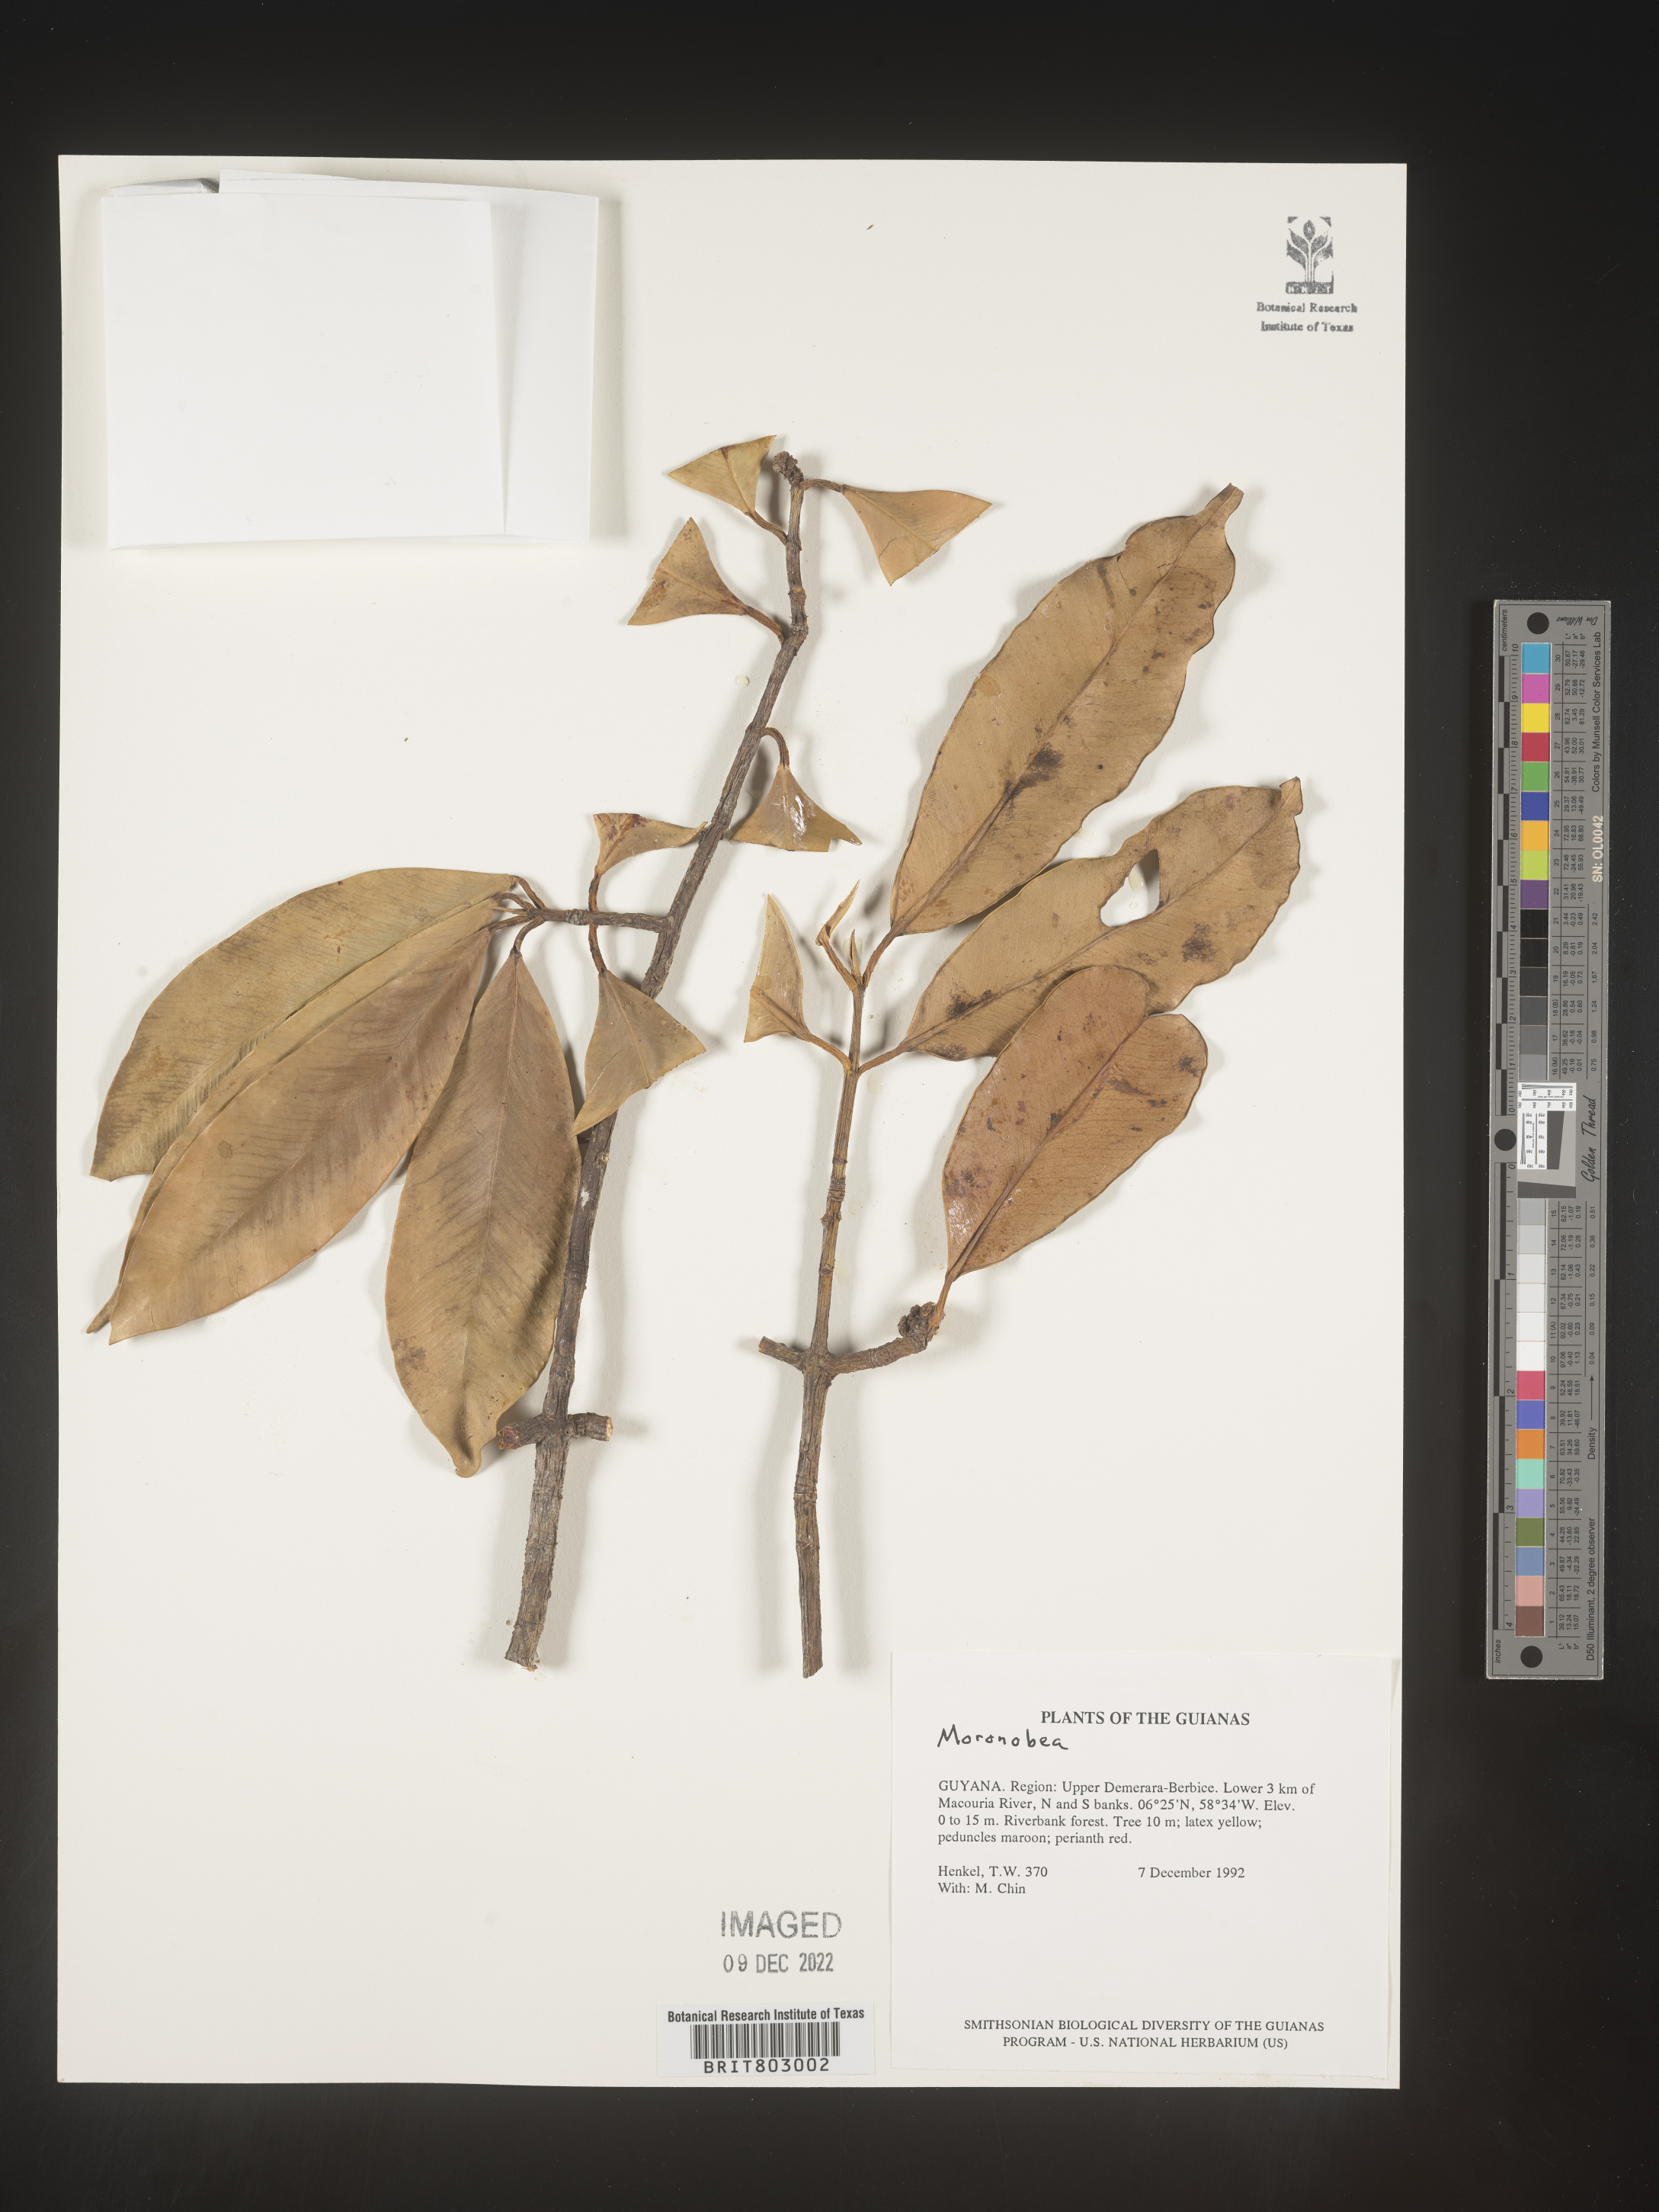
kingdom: Plantae
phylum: Tracheophyta
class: Magnoliopsida
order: Malpighiales
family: Clusiaceae
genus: Moronobea
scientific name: Moronobea
